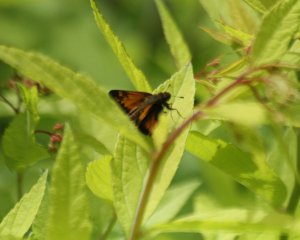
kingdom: Animalia
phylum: Arthropoda
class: Insecta
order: Lepidoptera
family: Hesperiidae
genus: Lon
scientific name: Lon hobomok
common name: Hobomok Skipper
